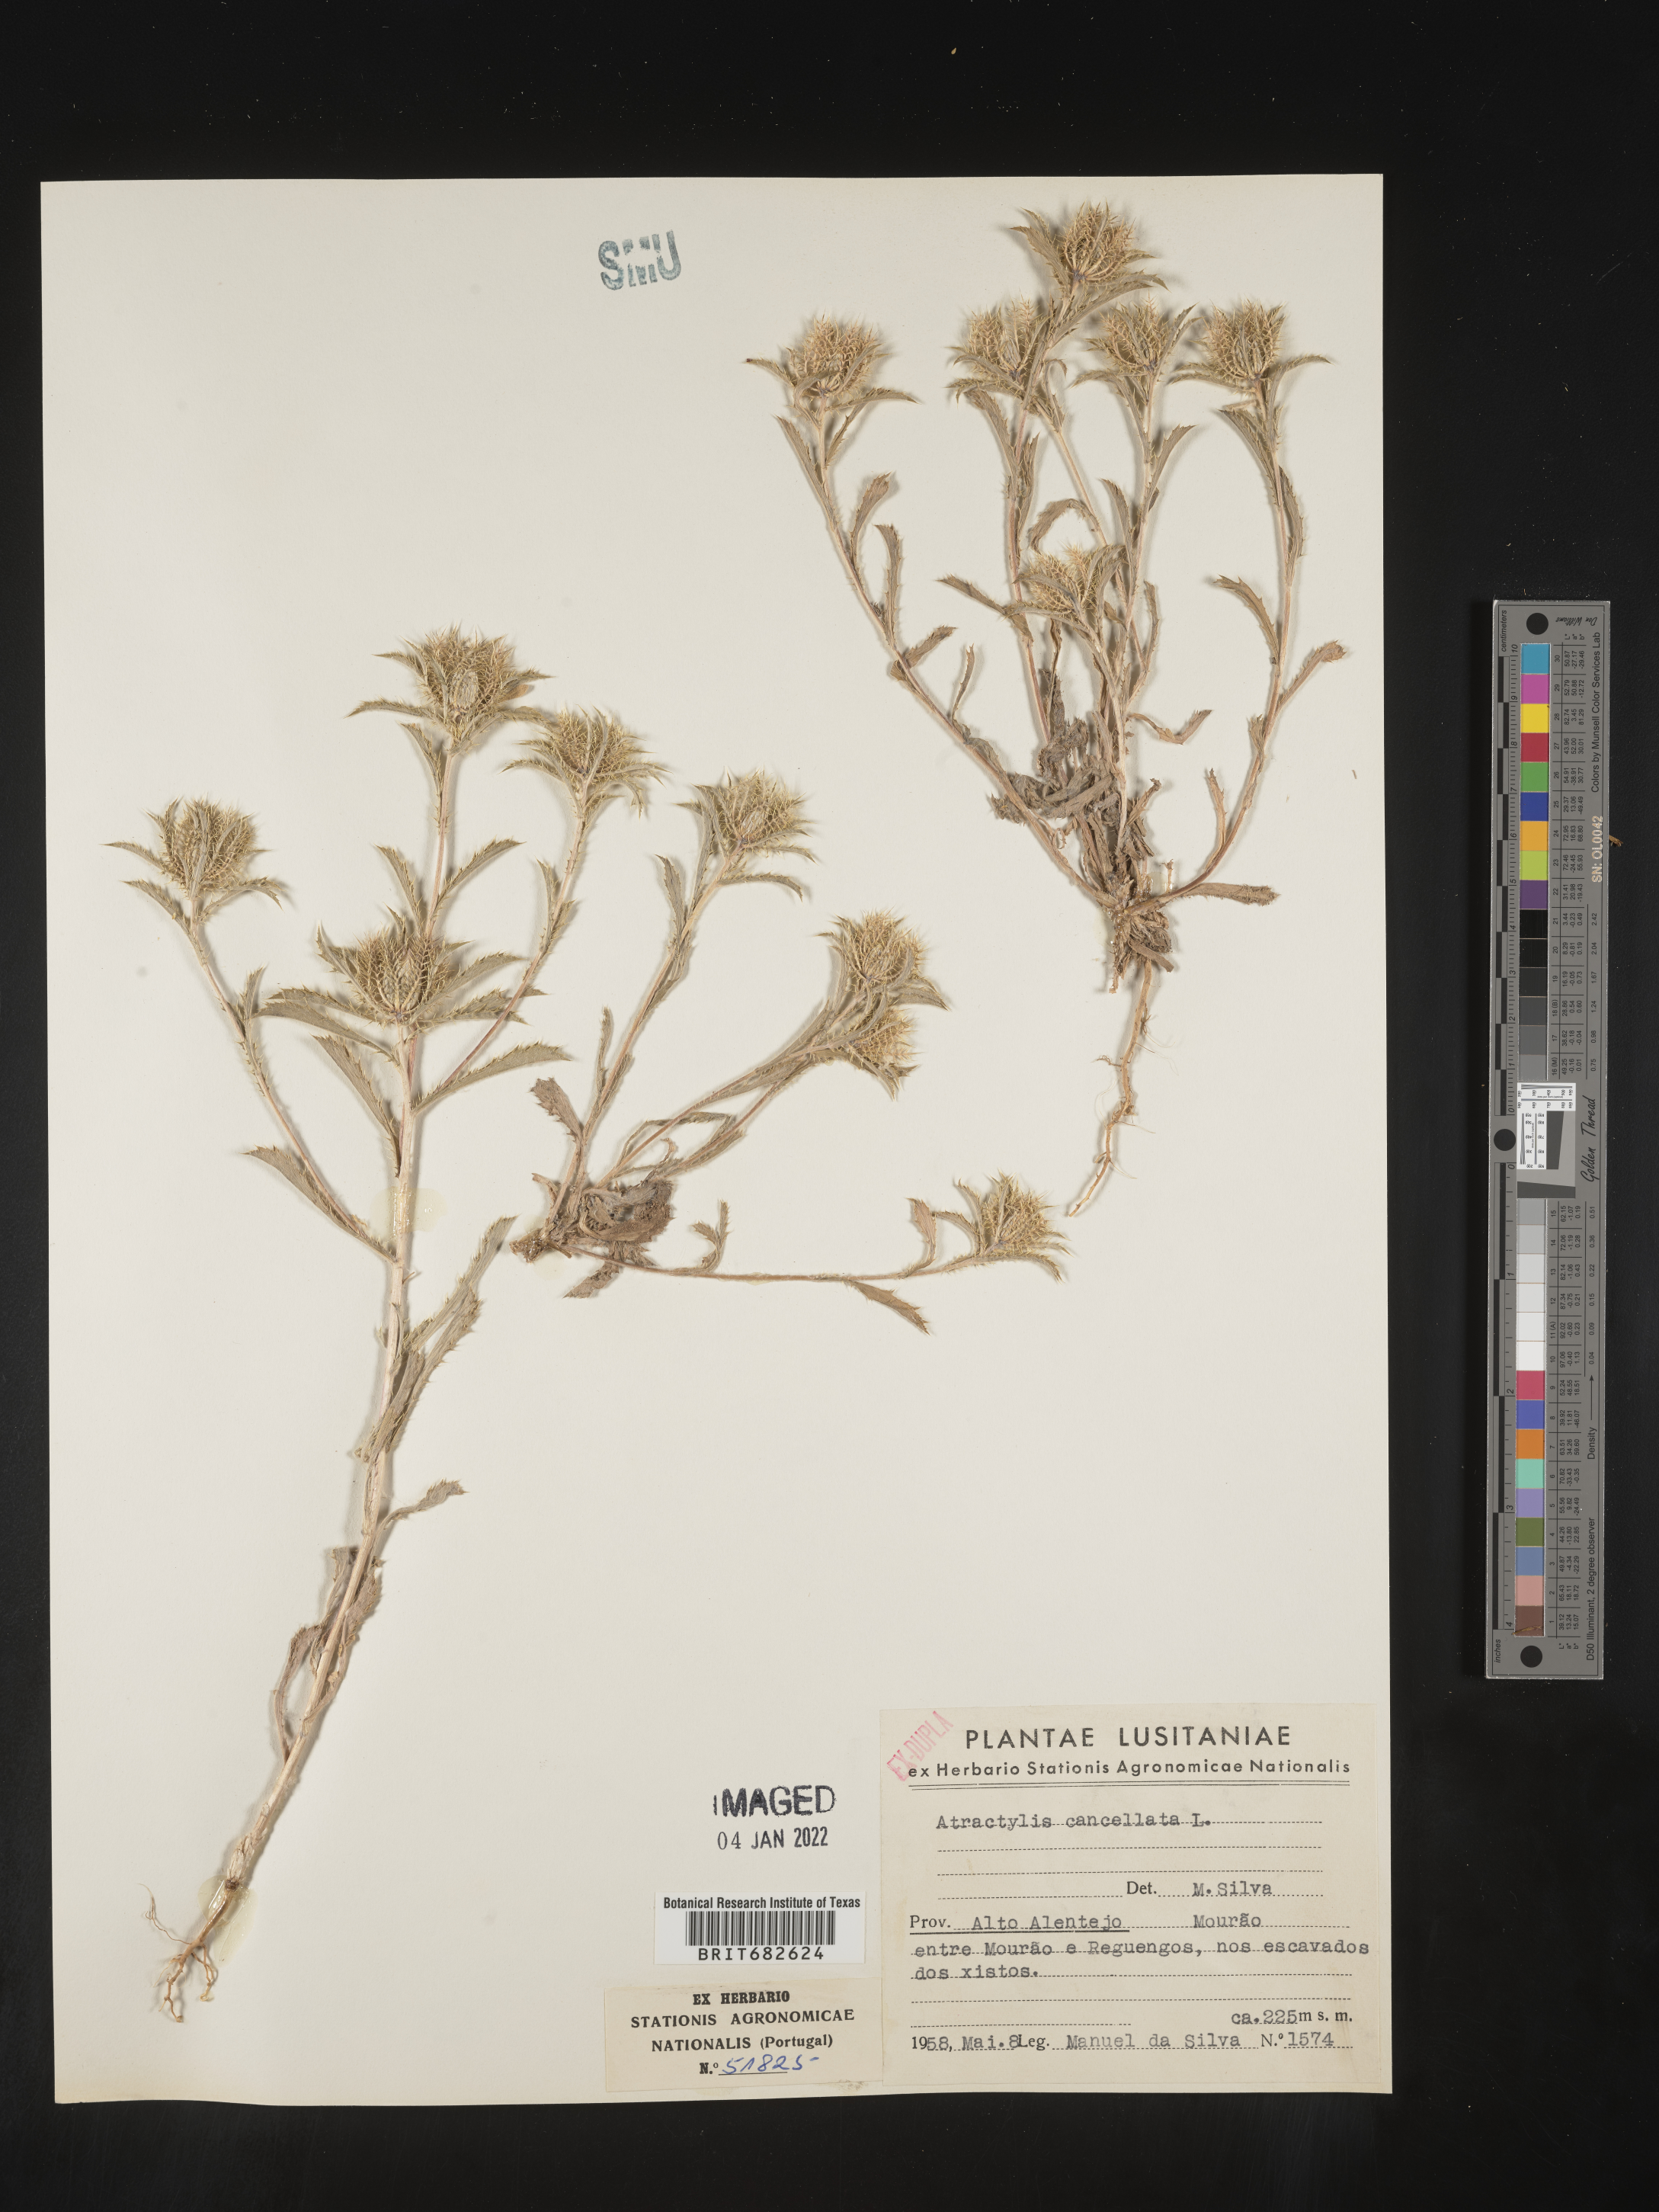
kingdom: Plantae
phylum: Tracheophyta
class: Magnoliopsida
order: Asterales
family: Asteraceae
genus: Atractylis
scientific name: Atractylis
